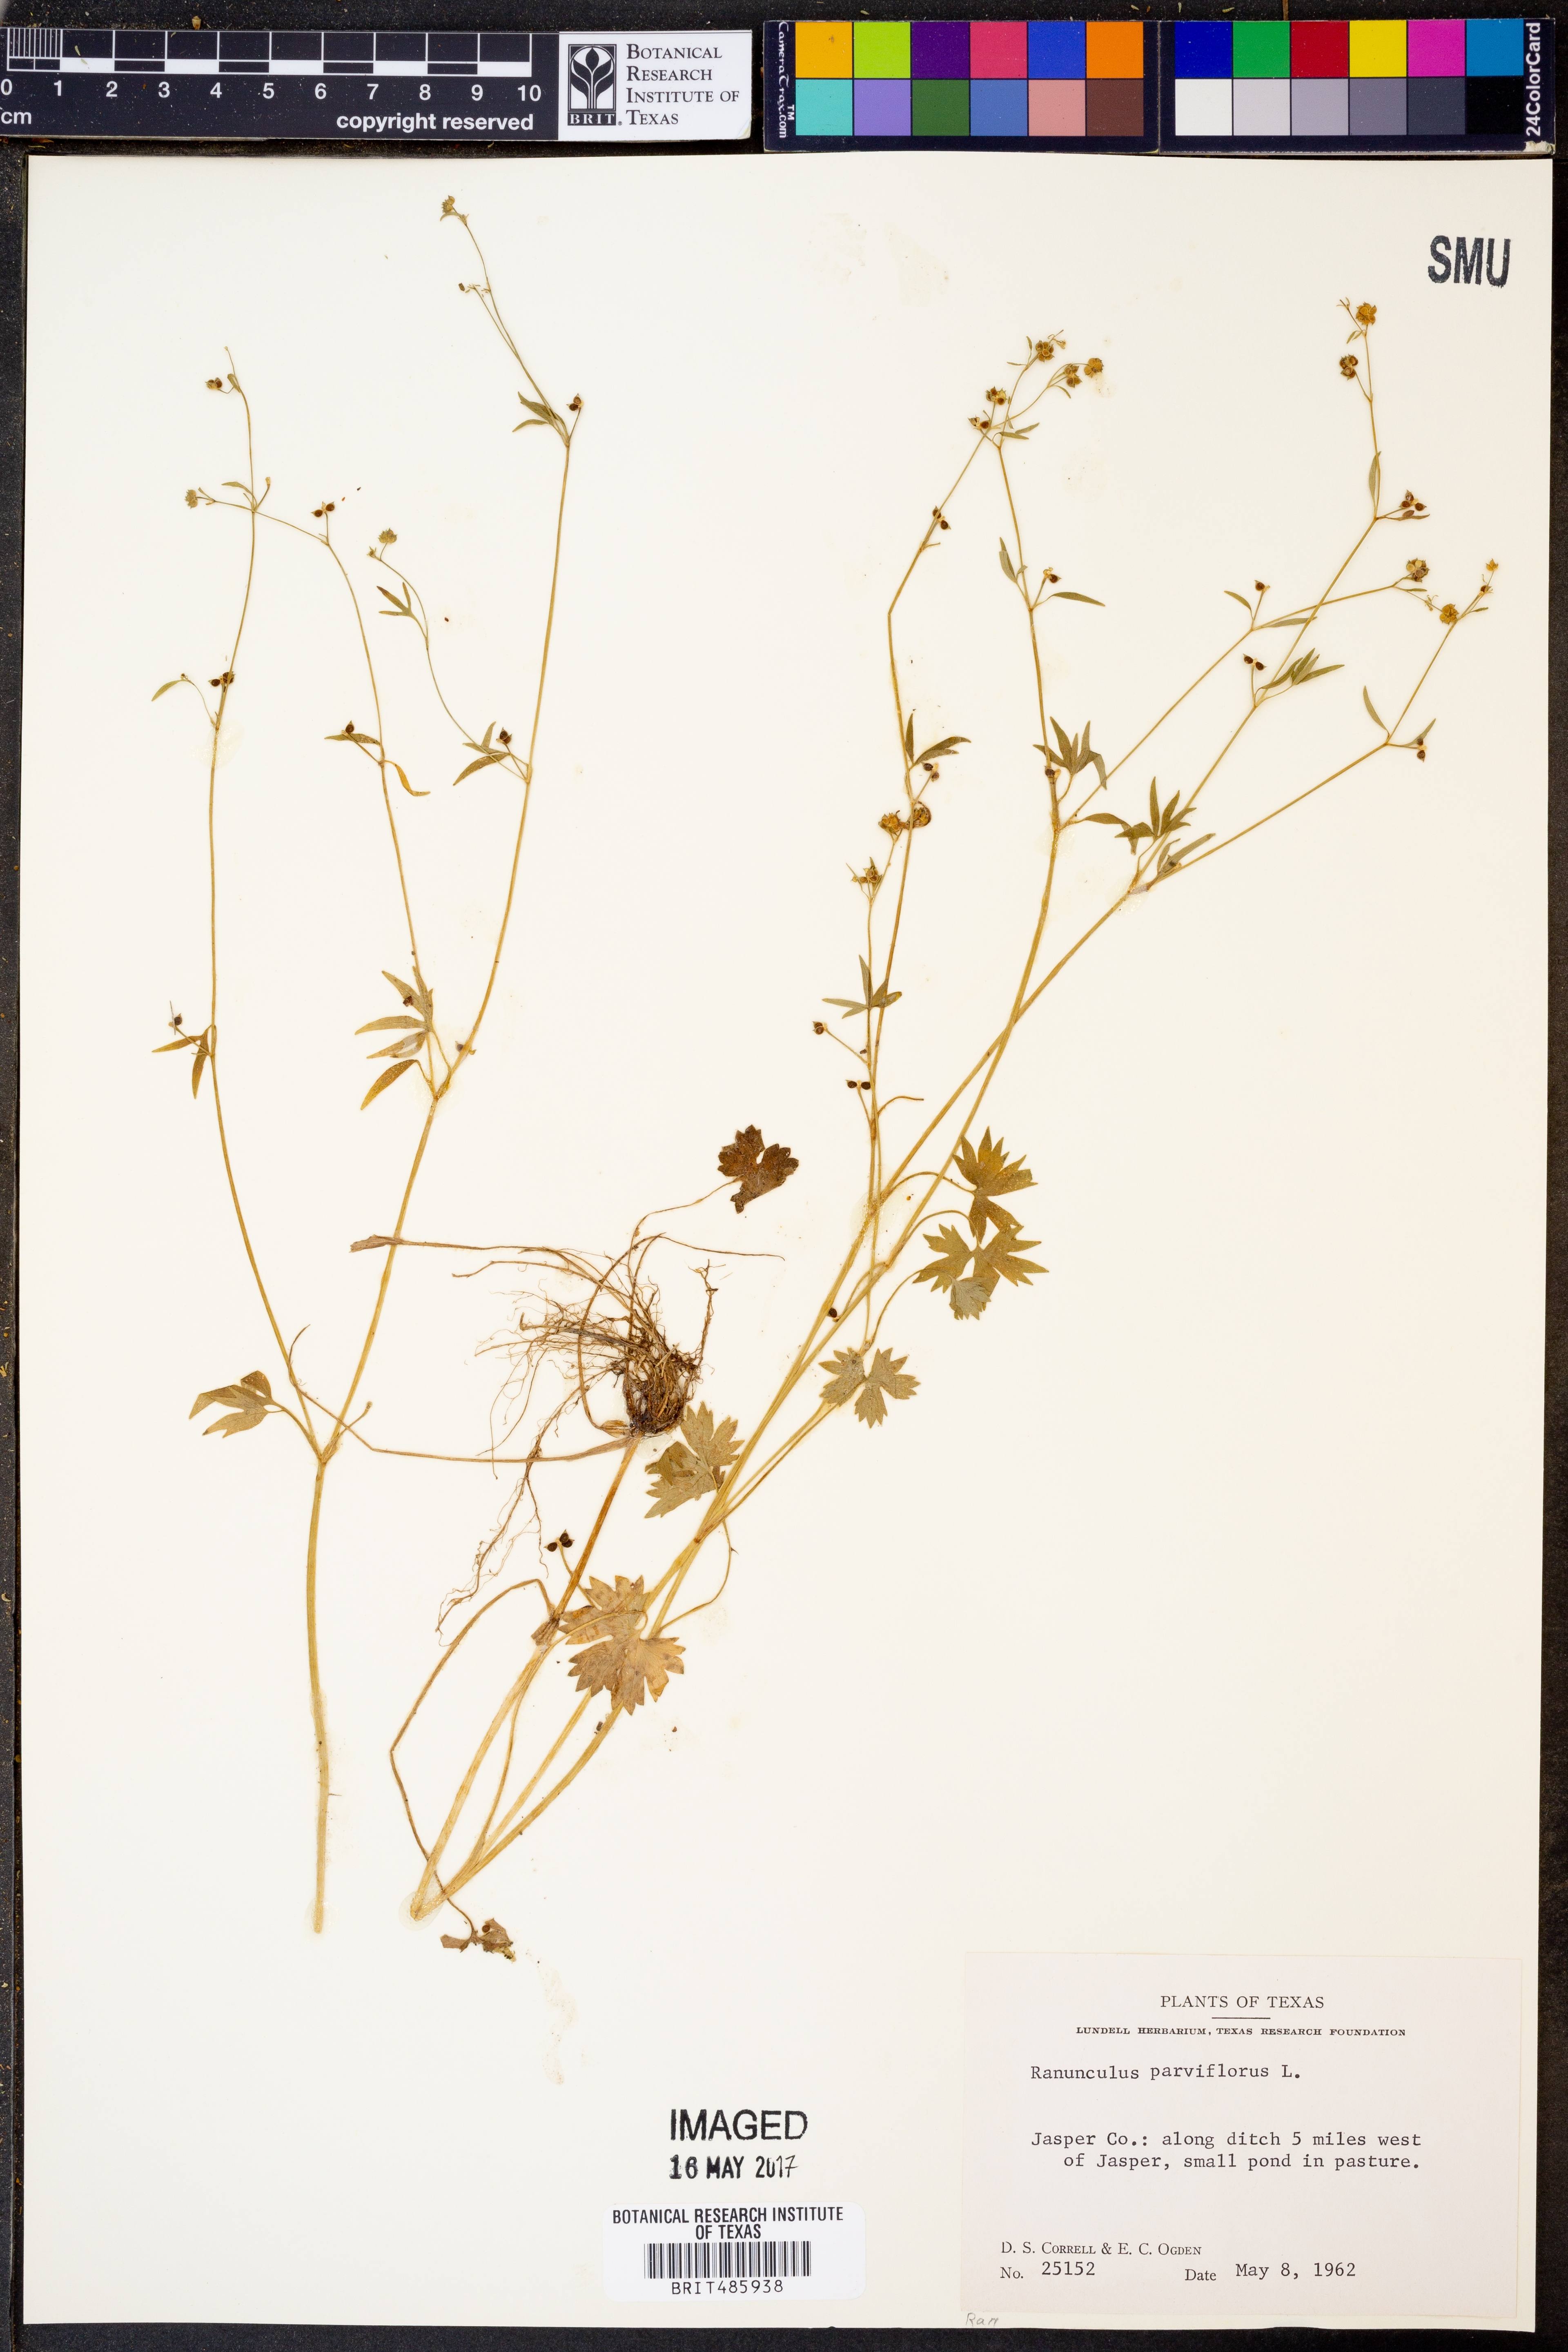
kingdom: Plantae
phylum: Tracheophyta
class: Magnoliopsida
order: Ranunculales
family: Ranunculaceae
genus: Ranunculus
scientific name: Ranunculus parviflorus
